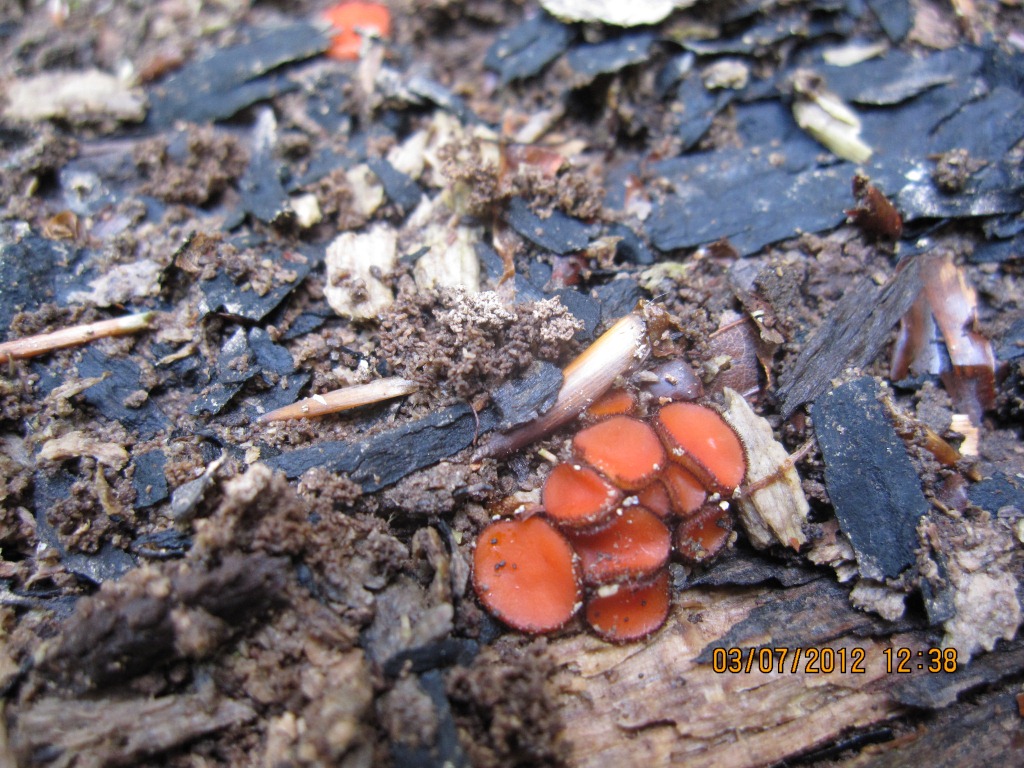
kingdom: Fungi
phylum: Ascomycota
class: Pezizomycetes
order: Pezizales
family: Pyronemataceae
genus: Scutellinia
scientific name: Scutellinia hirta
